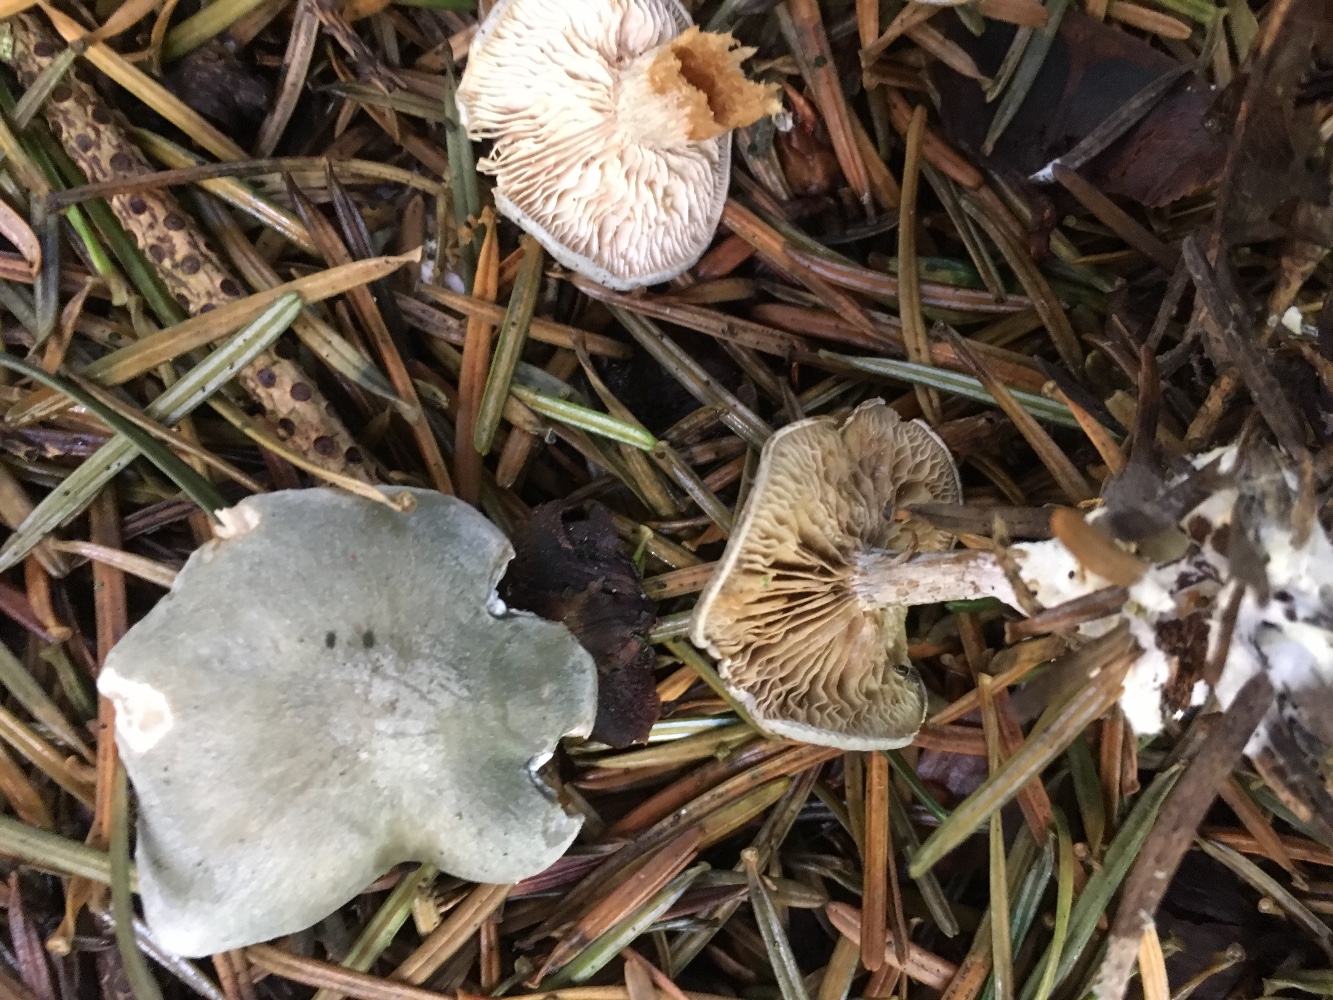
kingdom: Fungi
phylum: Basidiomycota
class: Agaricomycetes
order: Agaricales
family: Tricholomataceae
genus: Clitocybe
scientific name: Clitocybe odora
